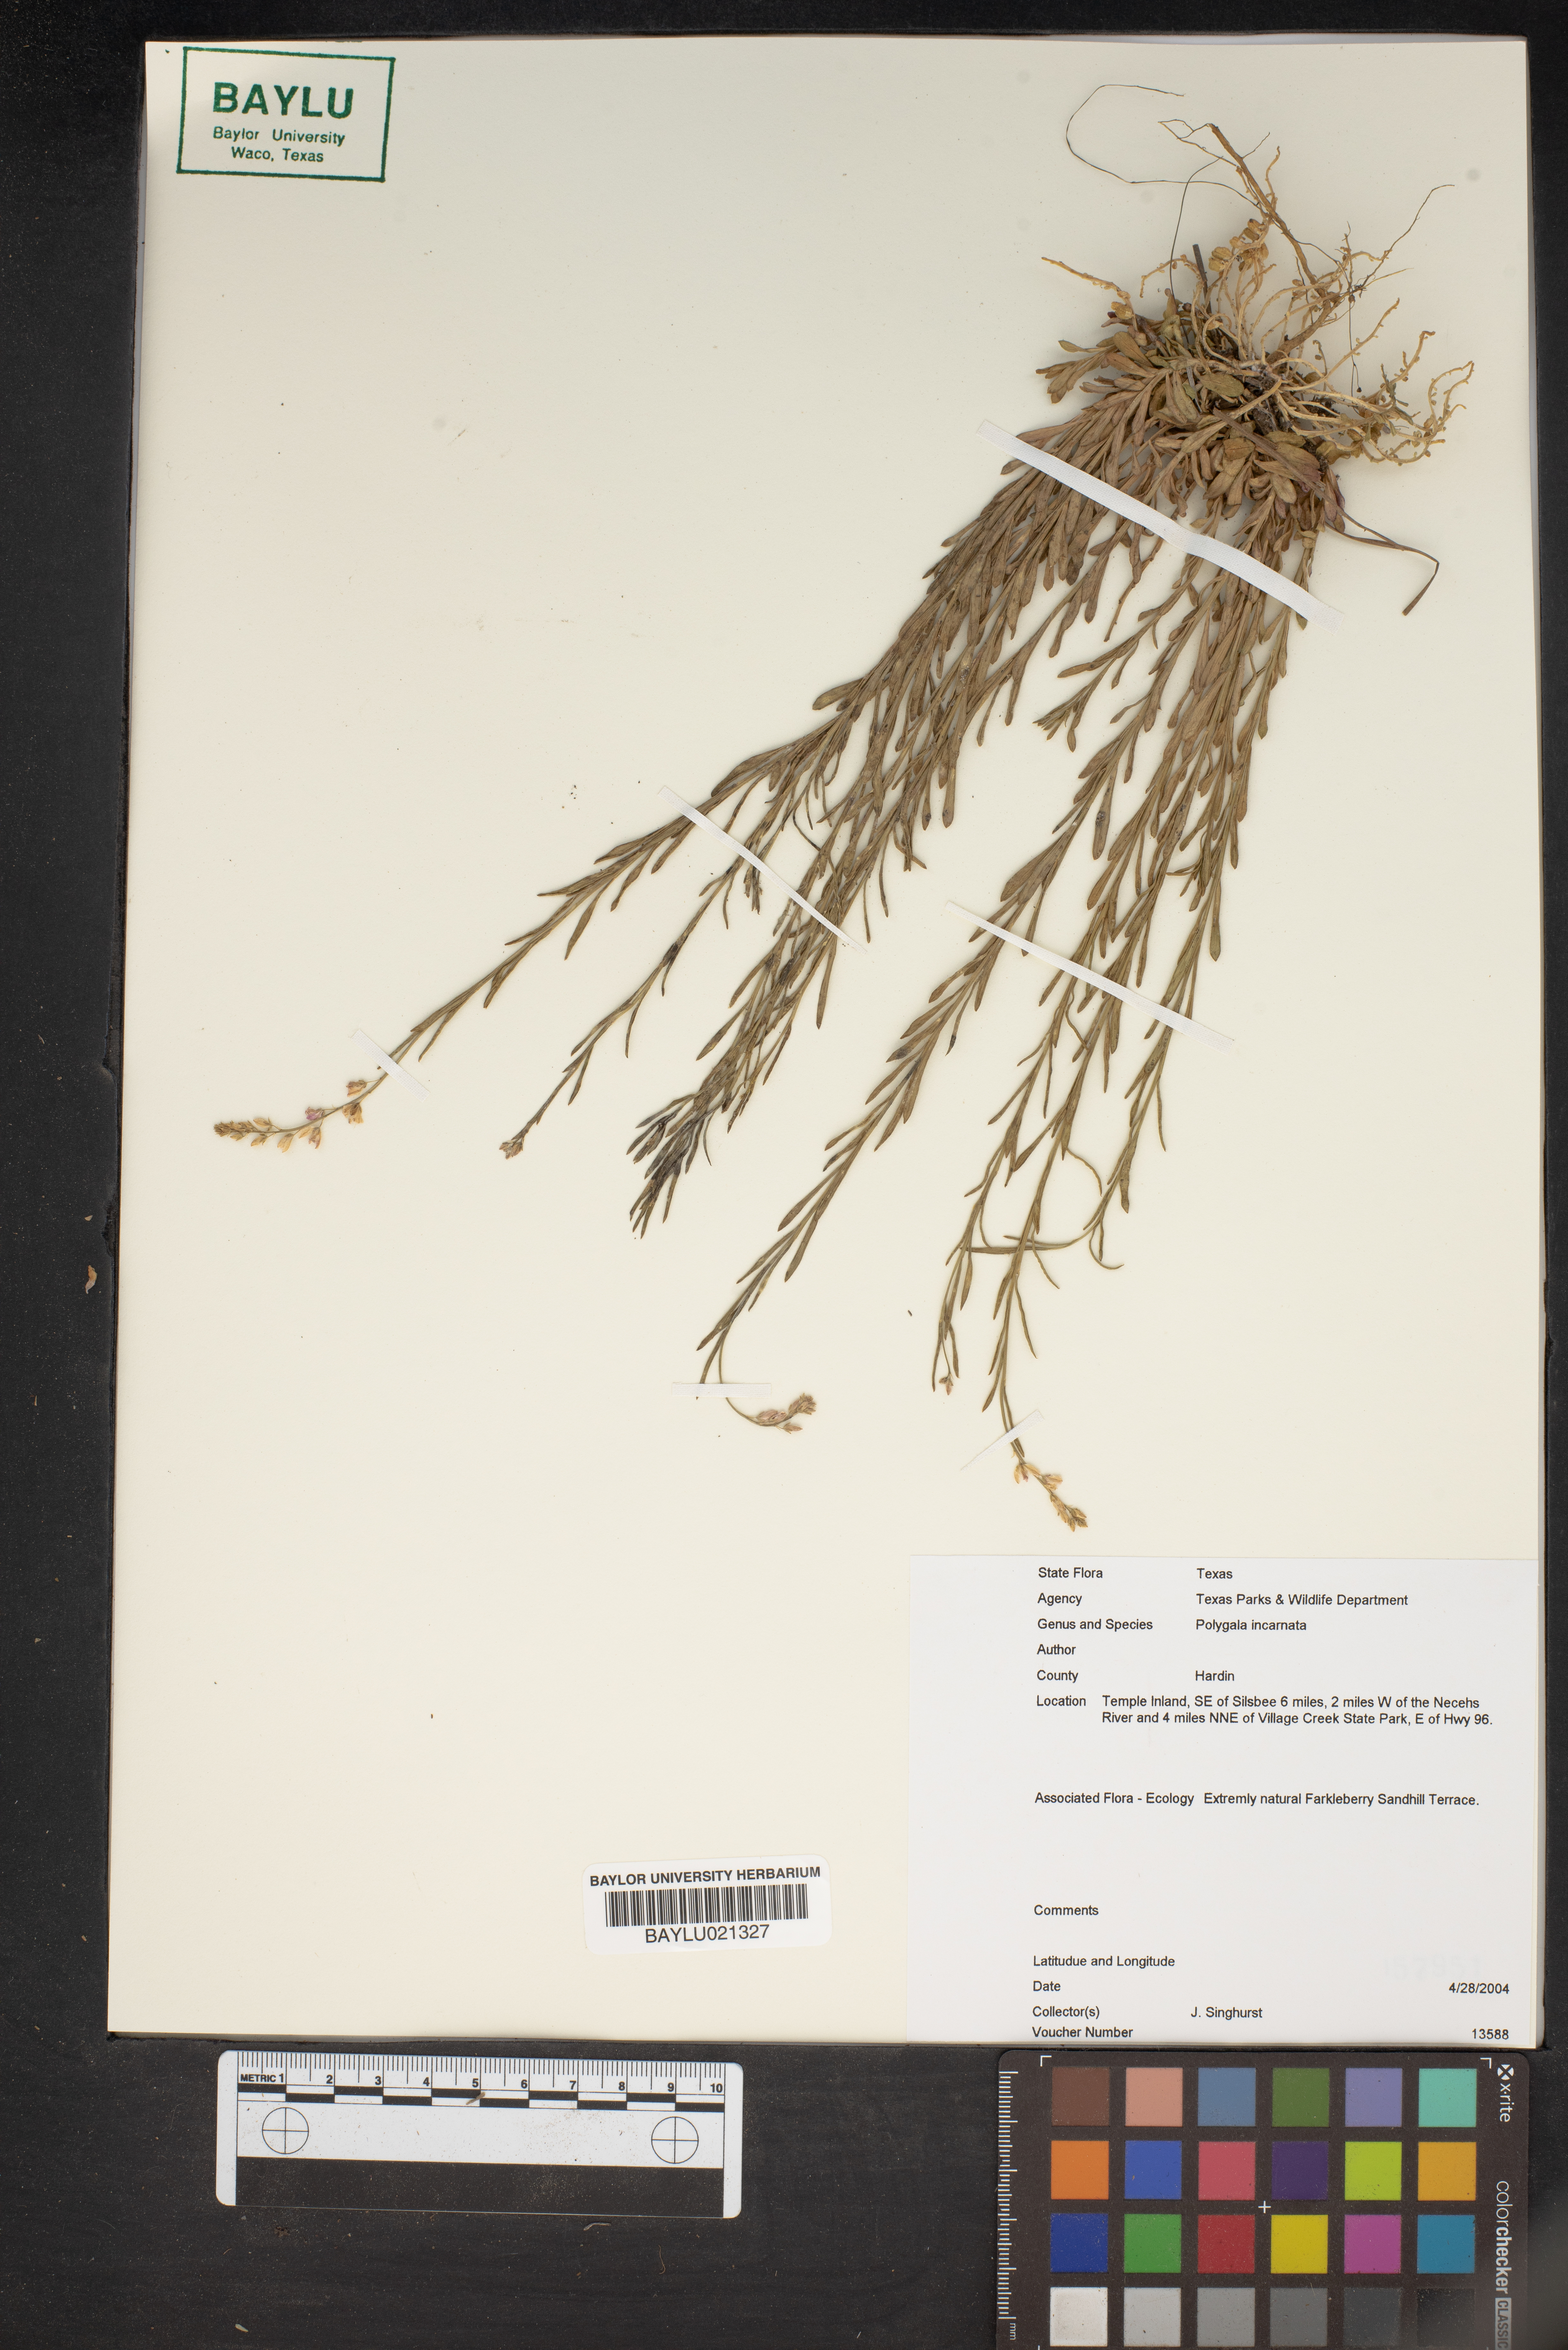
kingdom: Plantae
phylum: Tracheophyta
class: Magnoliopsida
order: Fabales
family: Polygalaceae
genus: Polygala
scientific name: Polygala incarnata
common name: Pink milkwort
